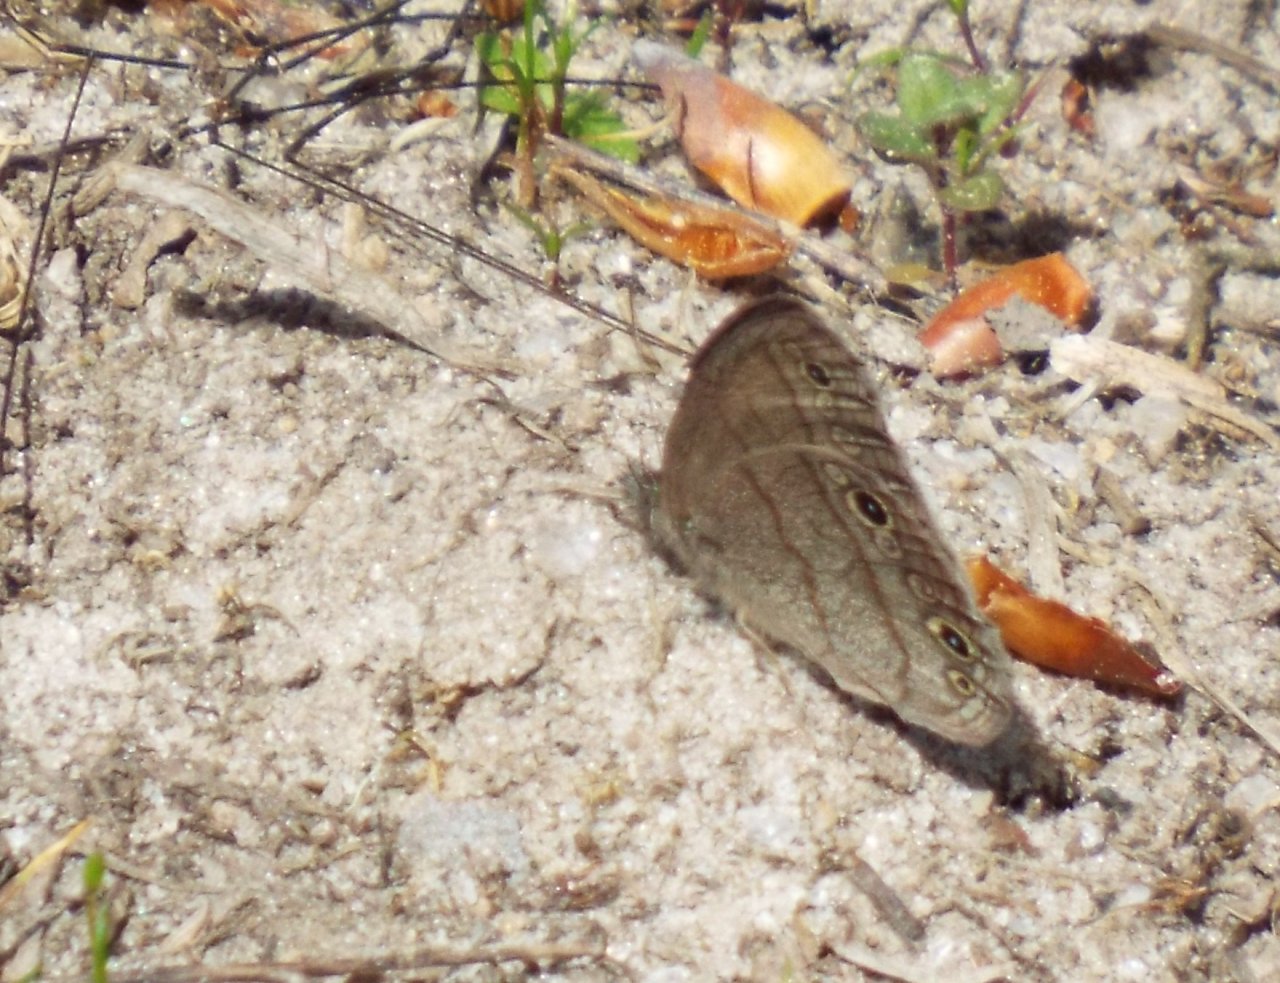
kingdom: Animalia
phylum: Arthropoda
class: Insecta
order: Lepidoptera
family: Nymphalidae
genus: Hermeuptychia
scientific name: Hermeuptychia
